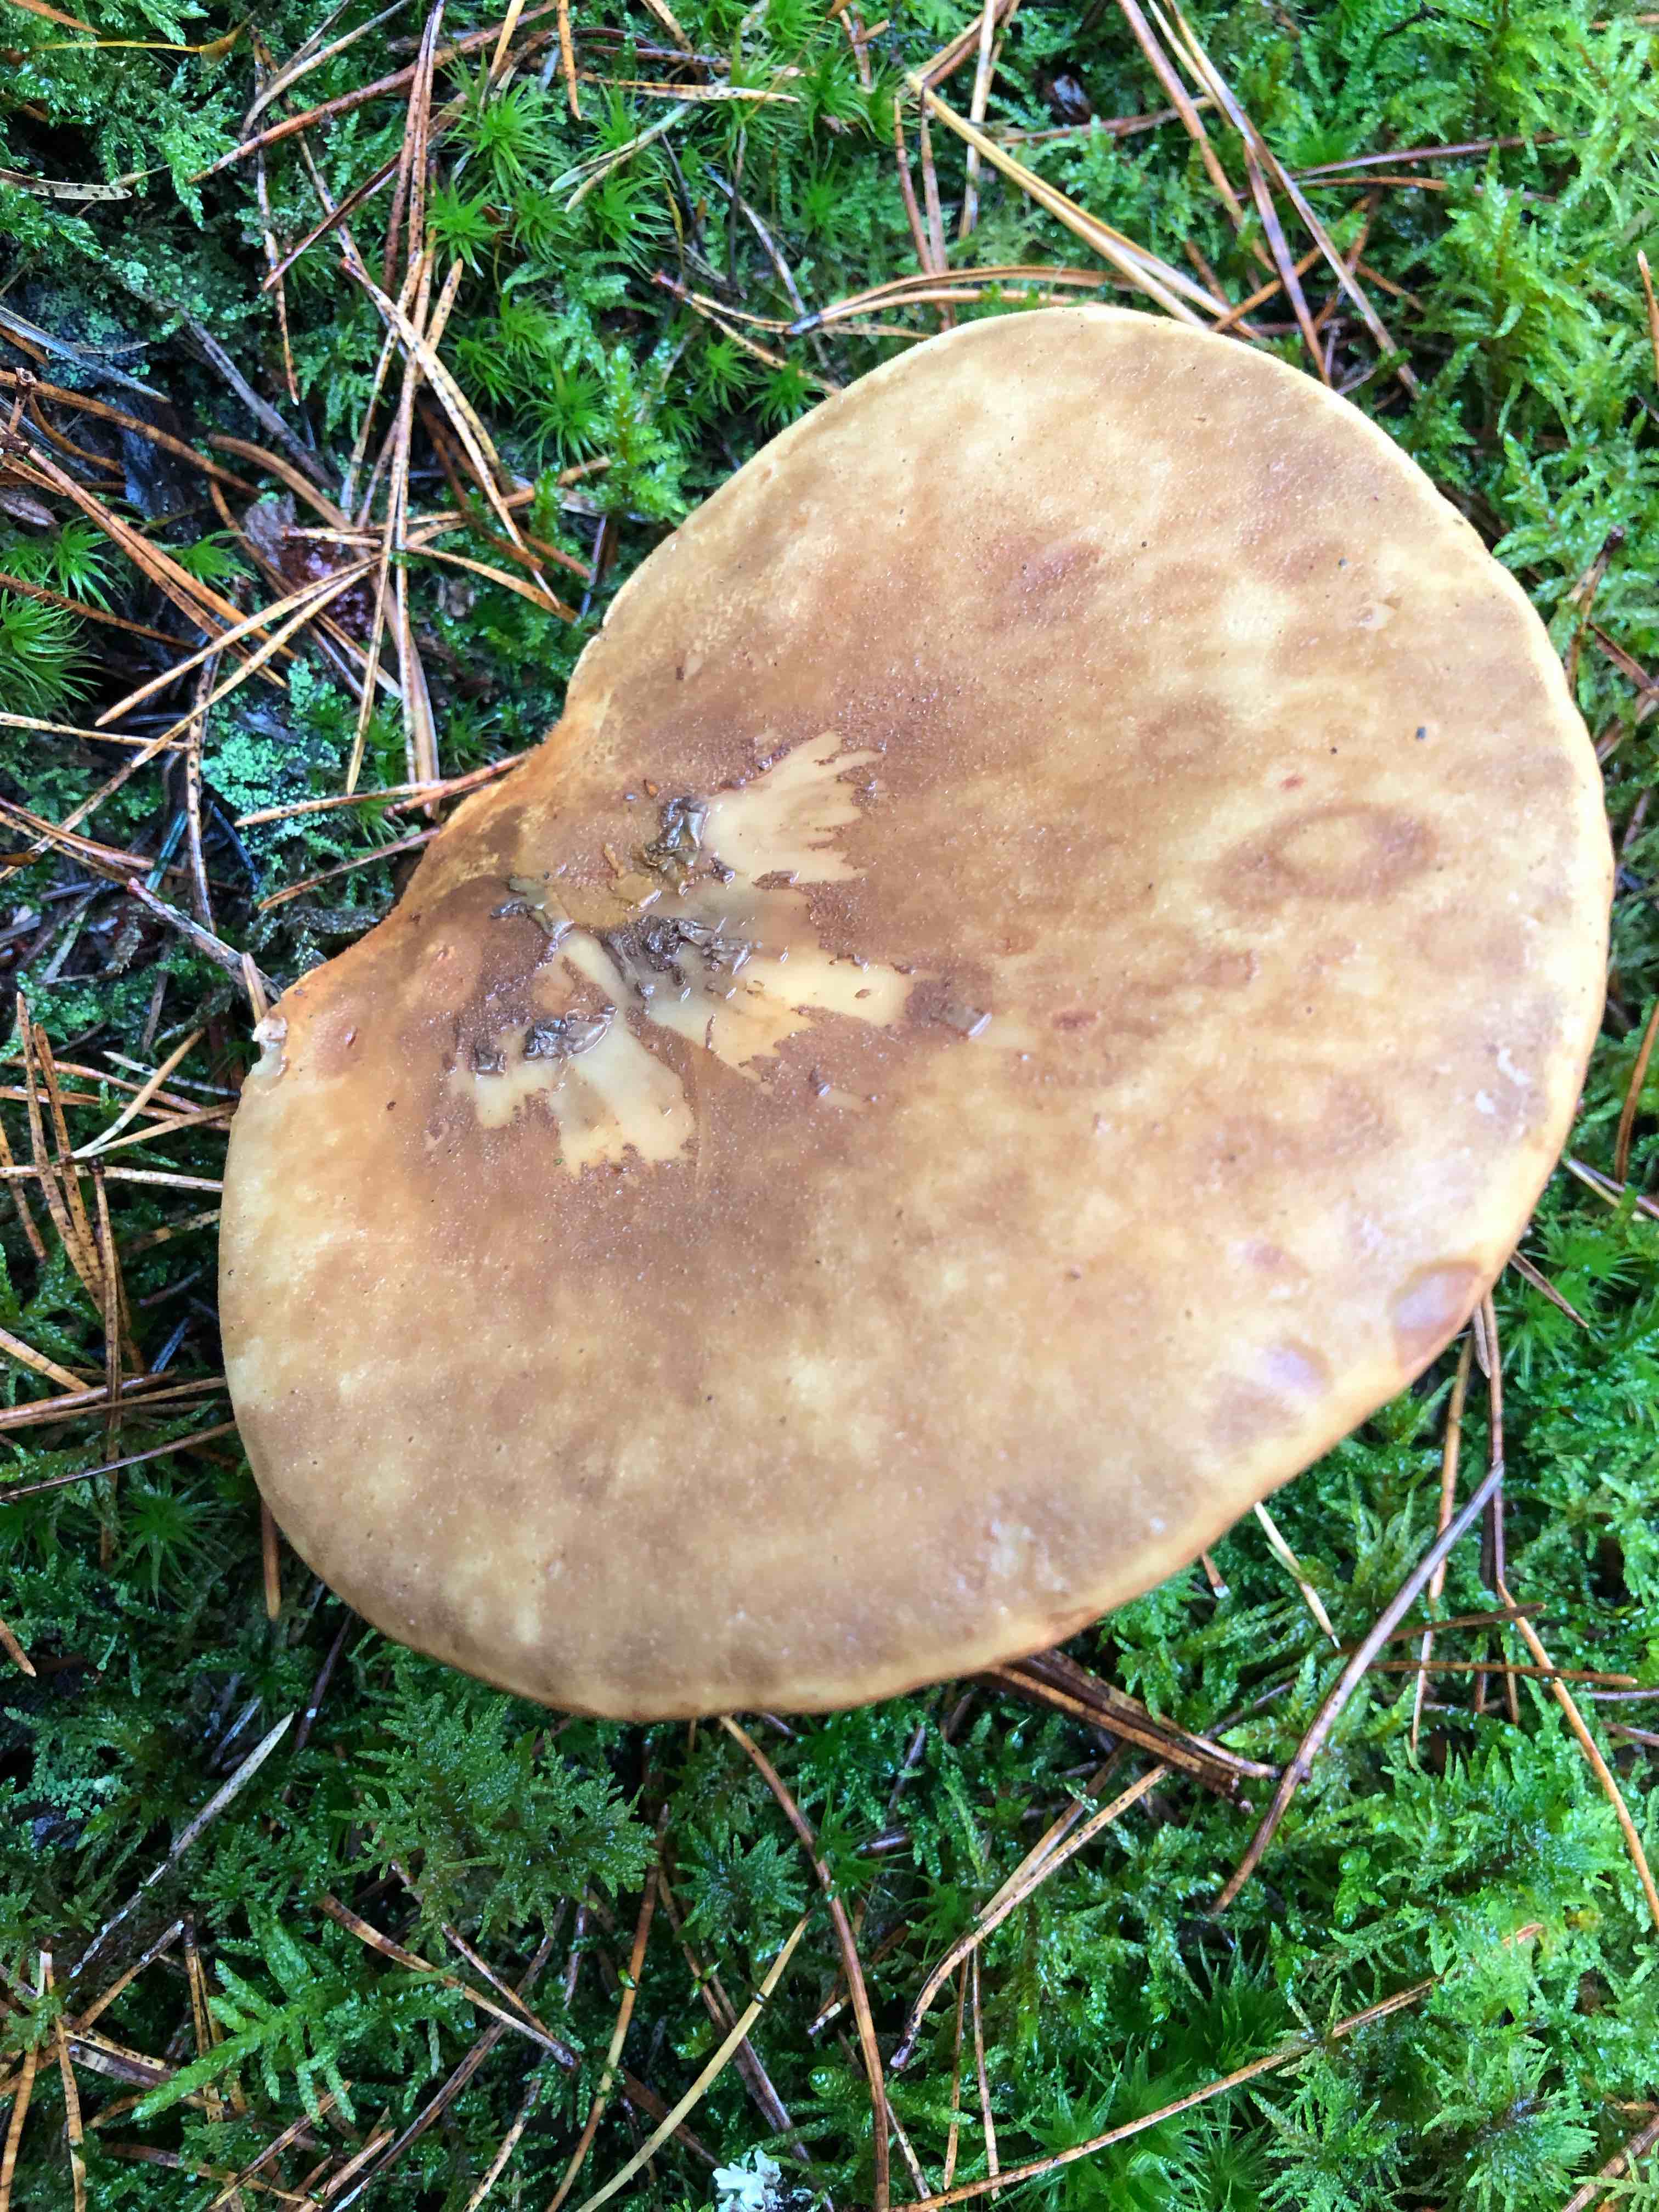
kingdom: Fungi
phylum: Basidiomycota
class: Agaricomycetes
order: Boletales
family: Tapinellaceae
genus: Tapinella
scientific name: Tapinella atrotomentosa
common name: sortfiltet viftesvamp
